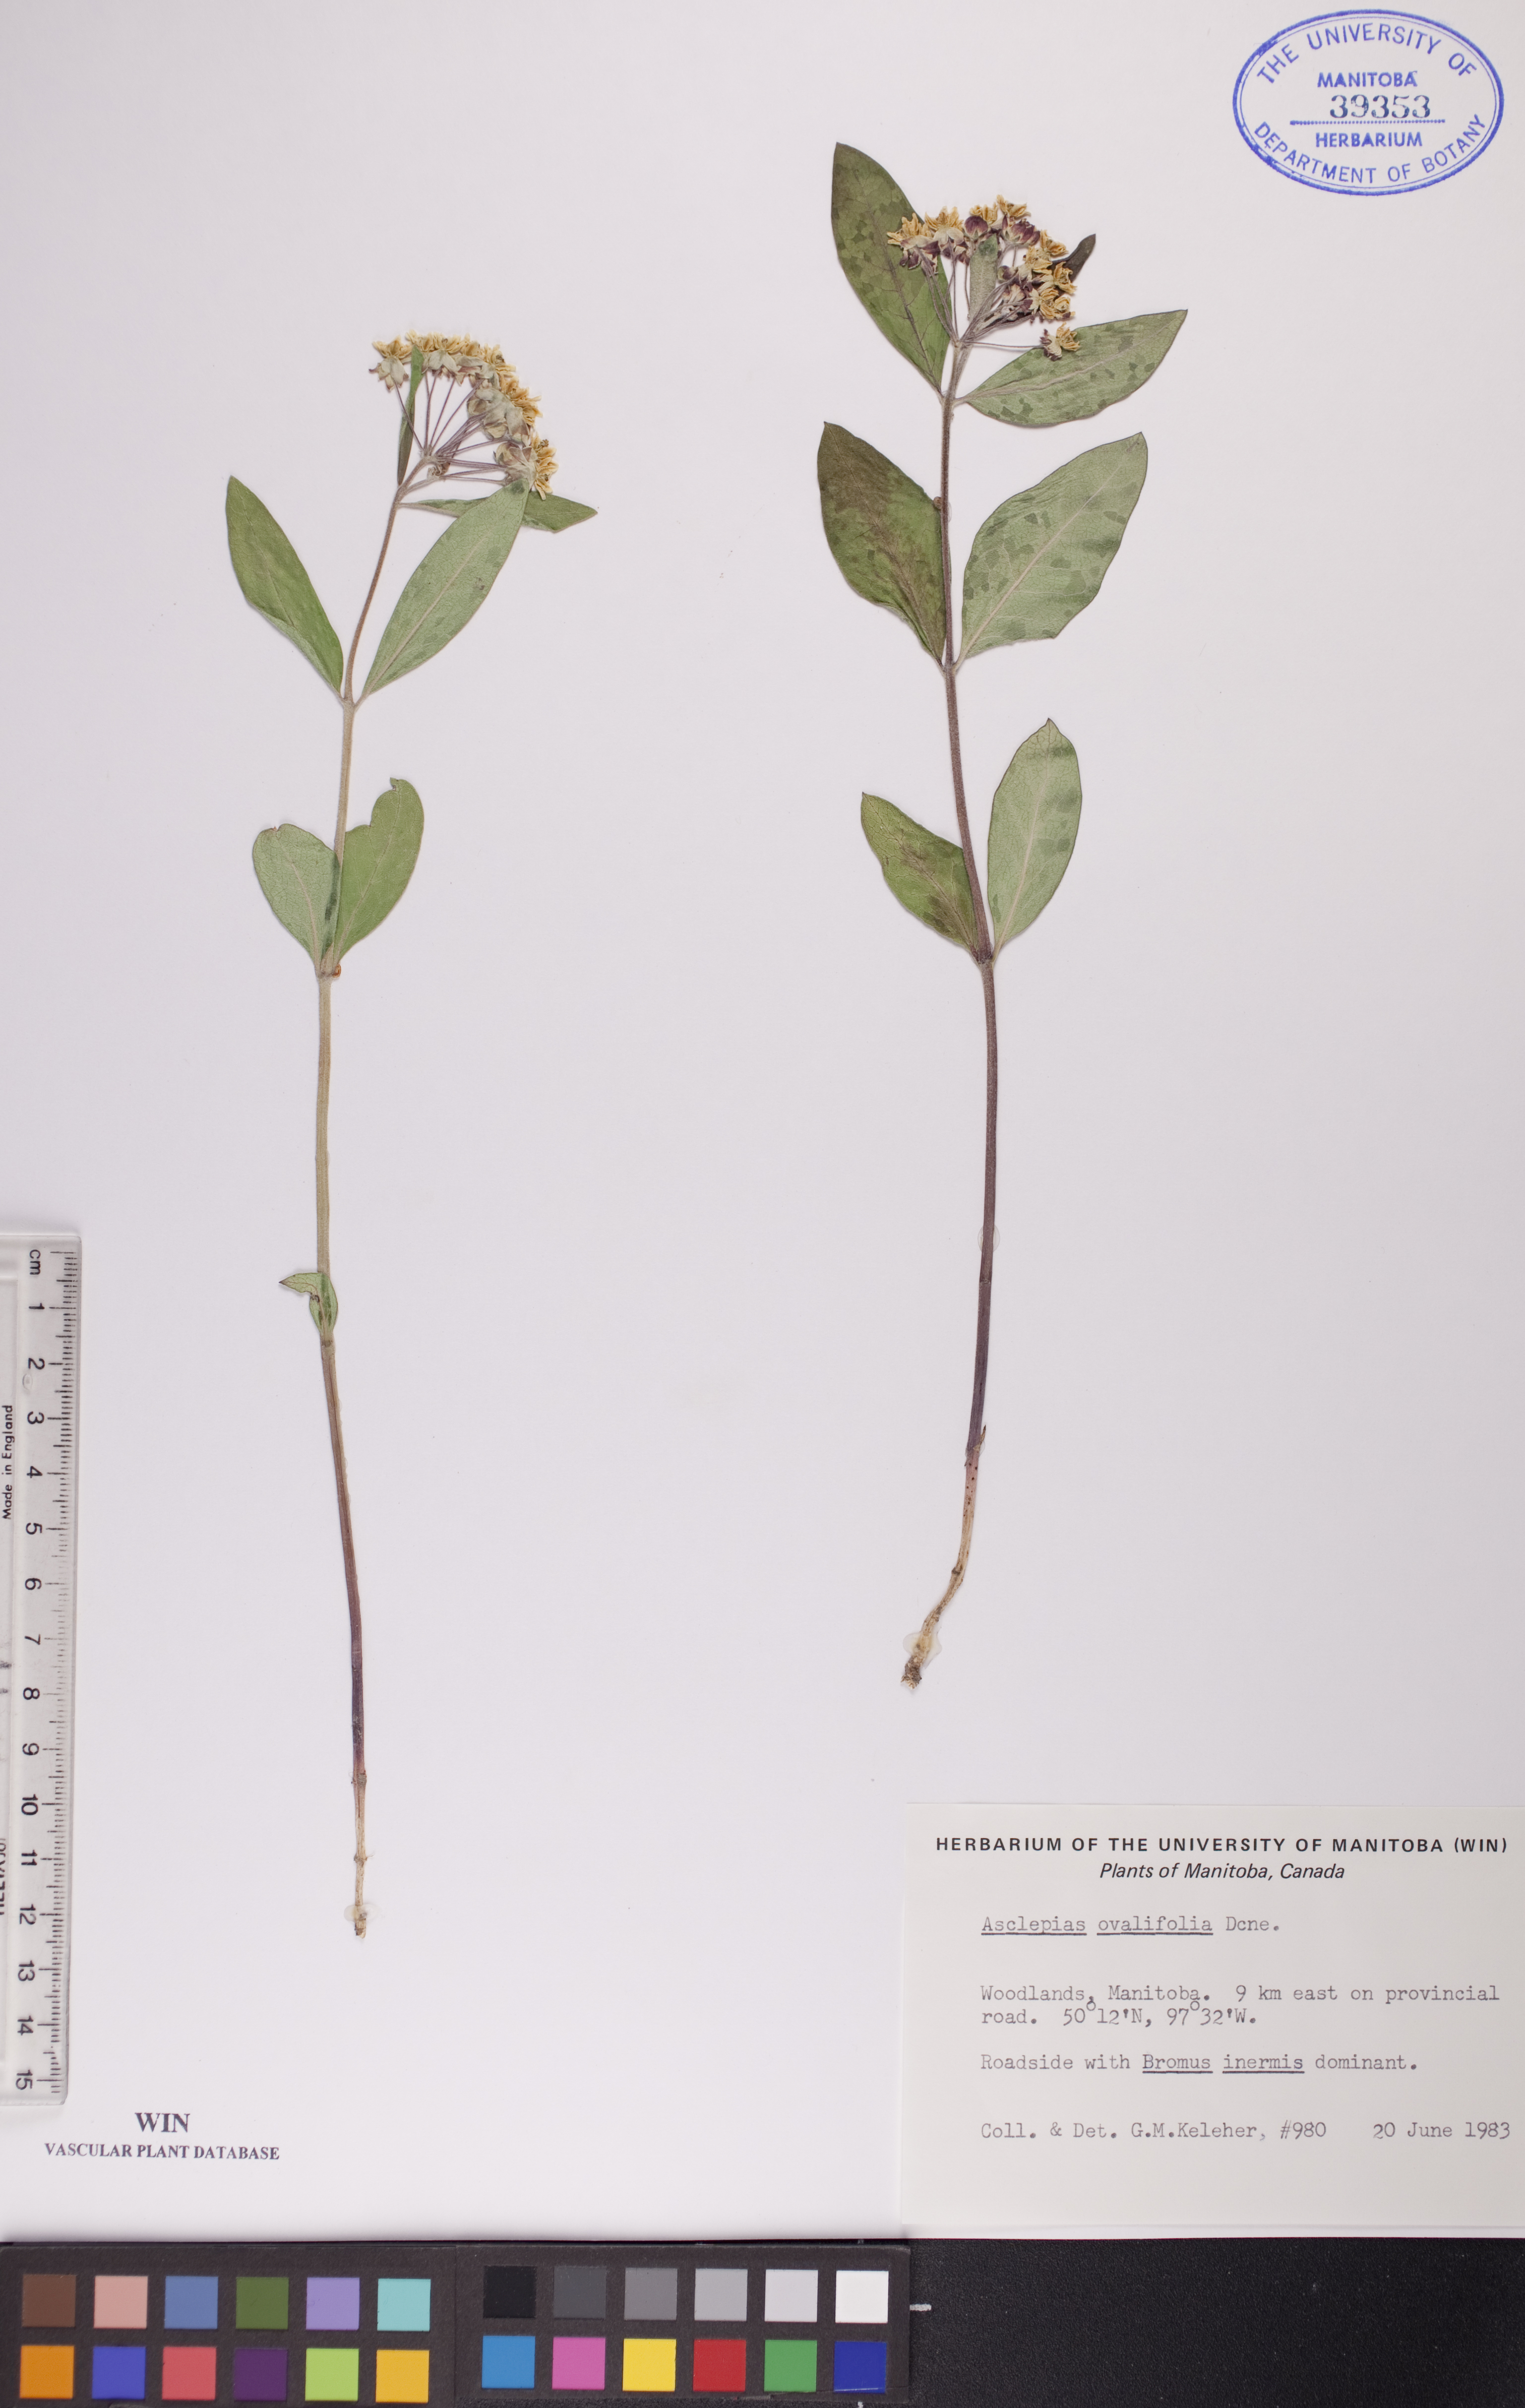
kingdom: Plantae
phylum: Tracheophyta
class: Magnoliopsida
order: Gentianales
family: Apocynaceae
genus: Asclepias
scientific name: Asclepias ovalifolia
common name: Dwarf milkweed
